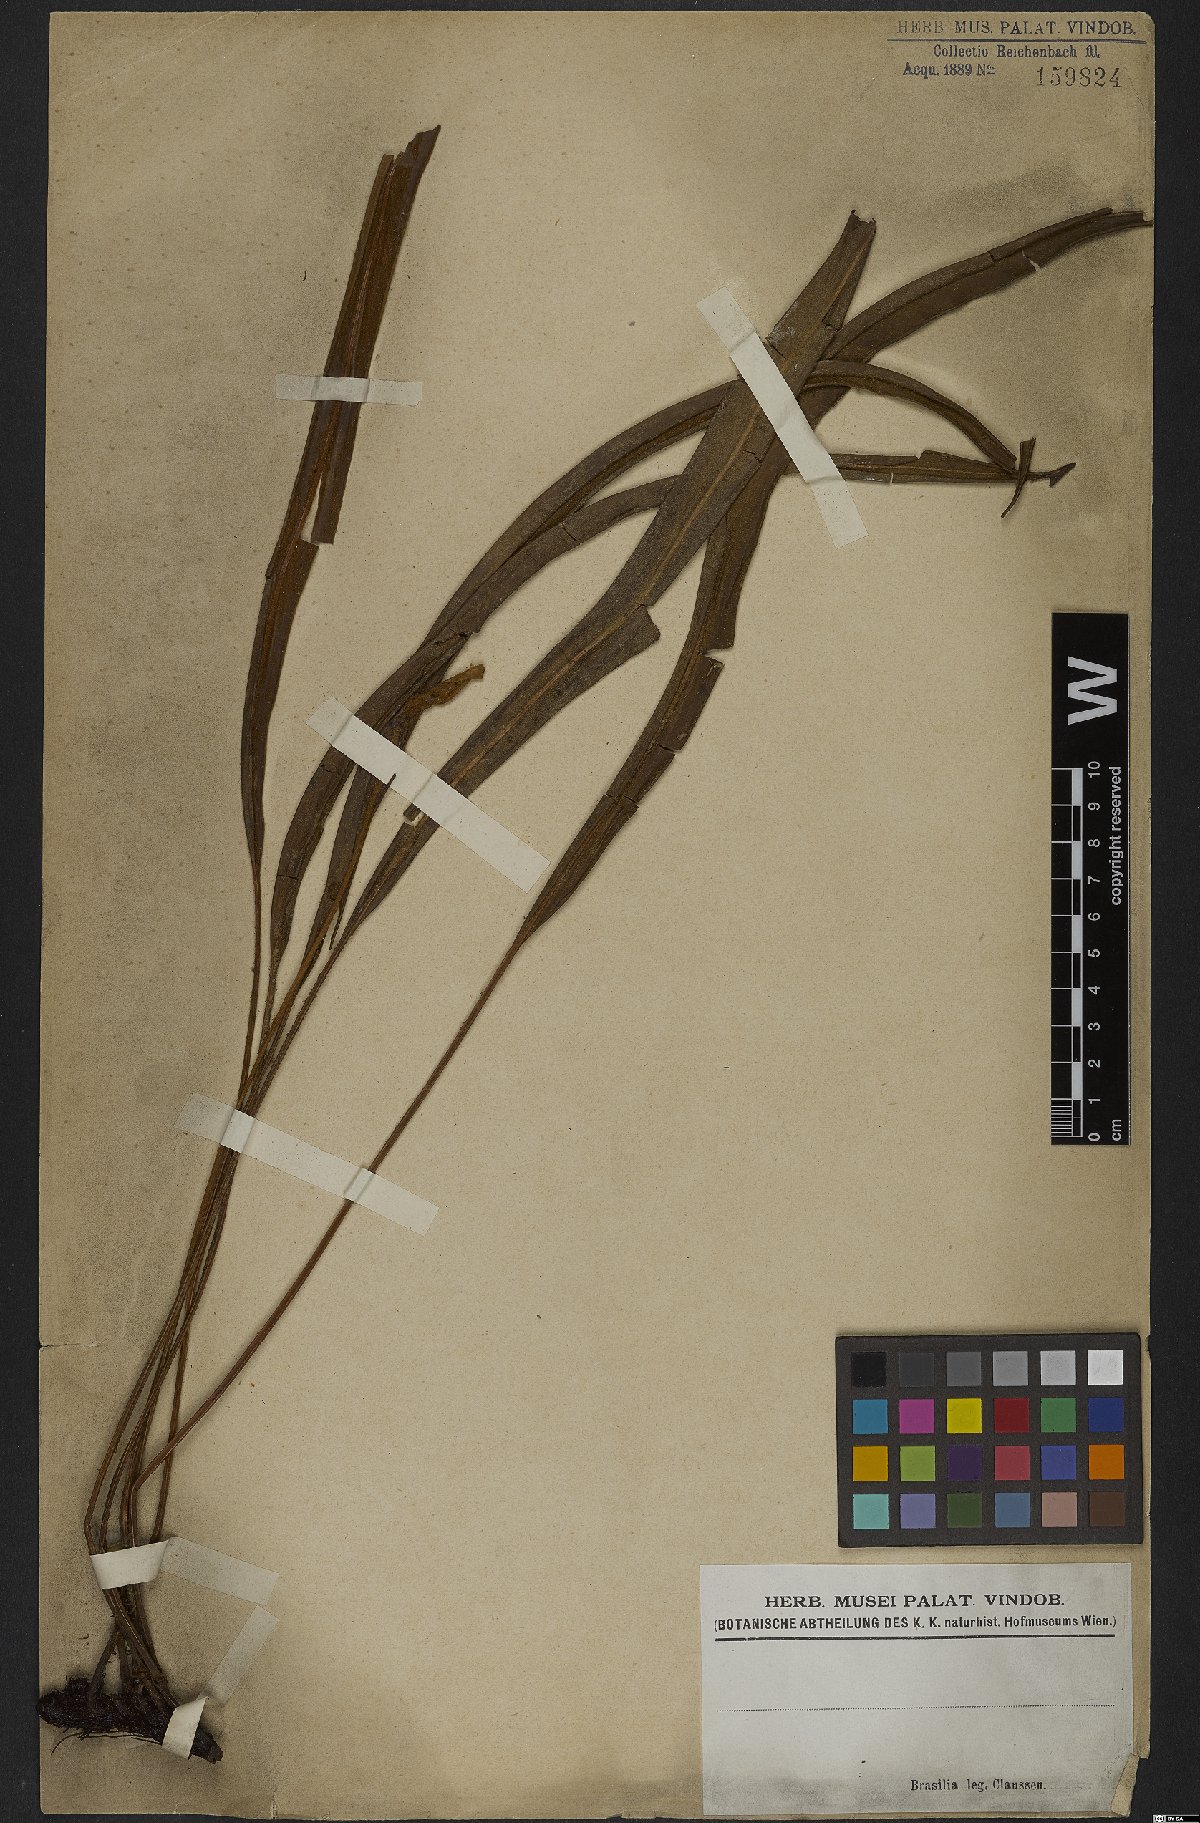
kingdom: Plantae
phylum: Tracheophyta
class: Polypodiopsida
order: Polypodiales
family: Dryopteridaceae
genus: Elaphoglossum
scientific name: Elaphoglossum
